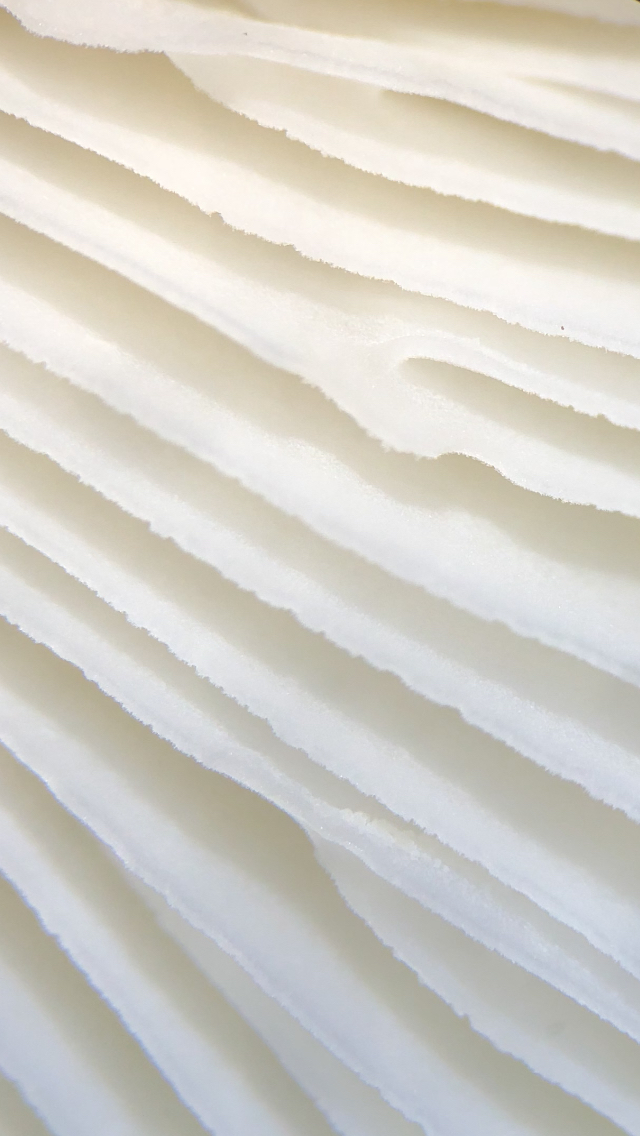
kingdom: Fungi
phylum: Basidiomycota
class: Agaricomycetes
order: Russulales
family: Russulaceae
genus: Russula
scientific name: Russula fragilis
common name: savbladet skørhat
